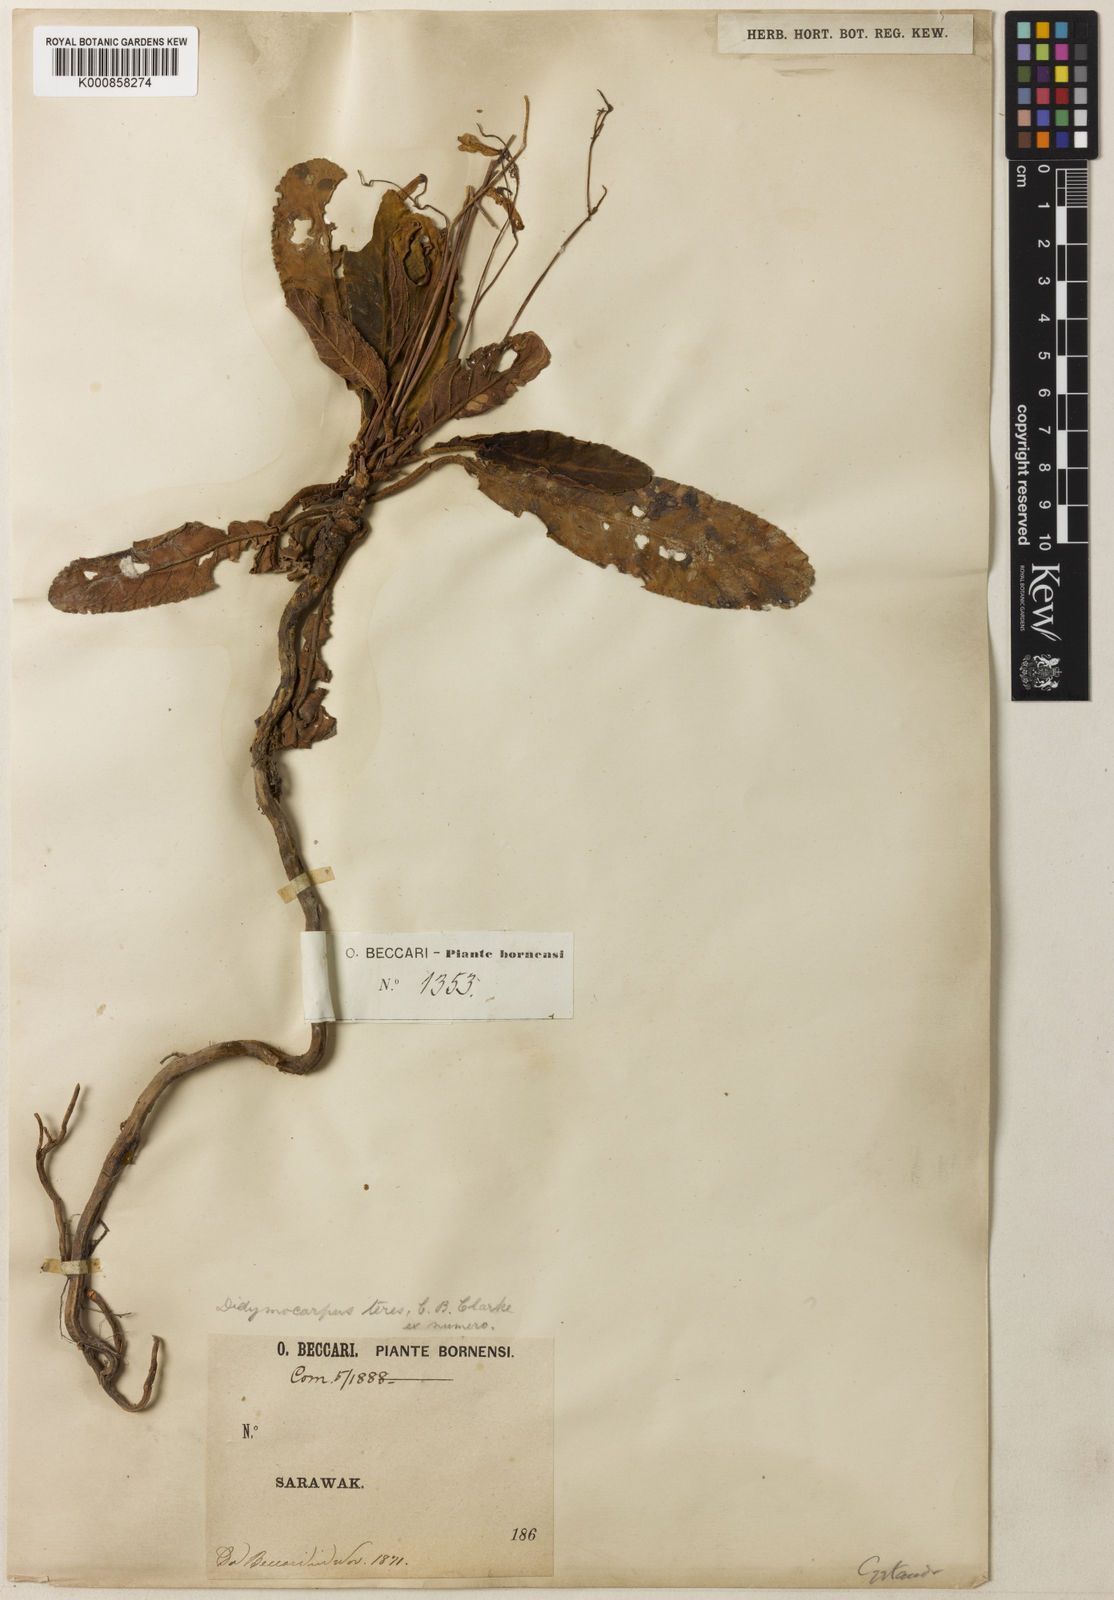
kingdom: Plantae
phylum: Tracheophyta
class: Magnoliopsida
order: Lamiales
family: Gesneriaceae
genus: Codonoboea
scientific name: Codonoboea teres
